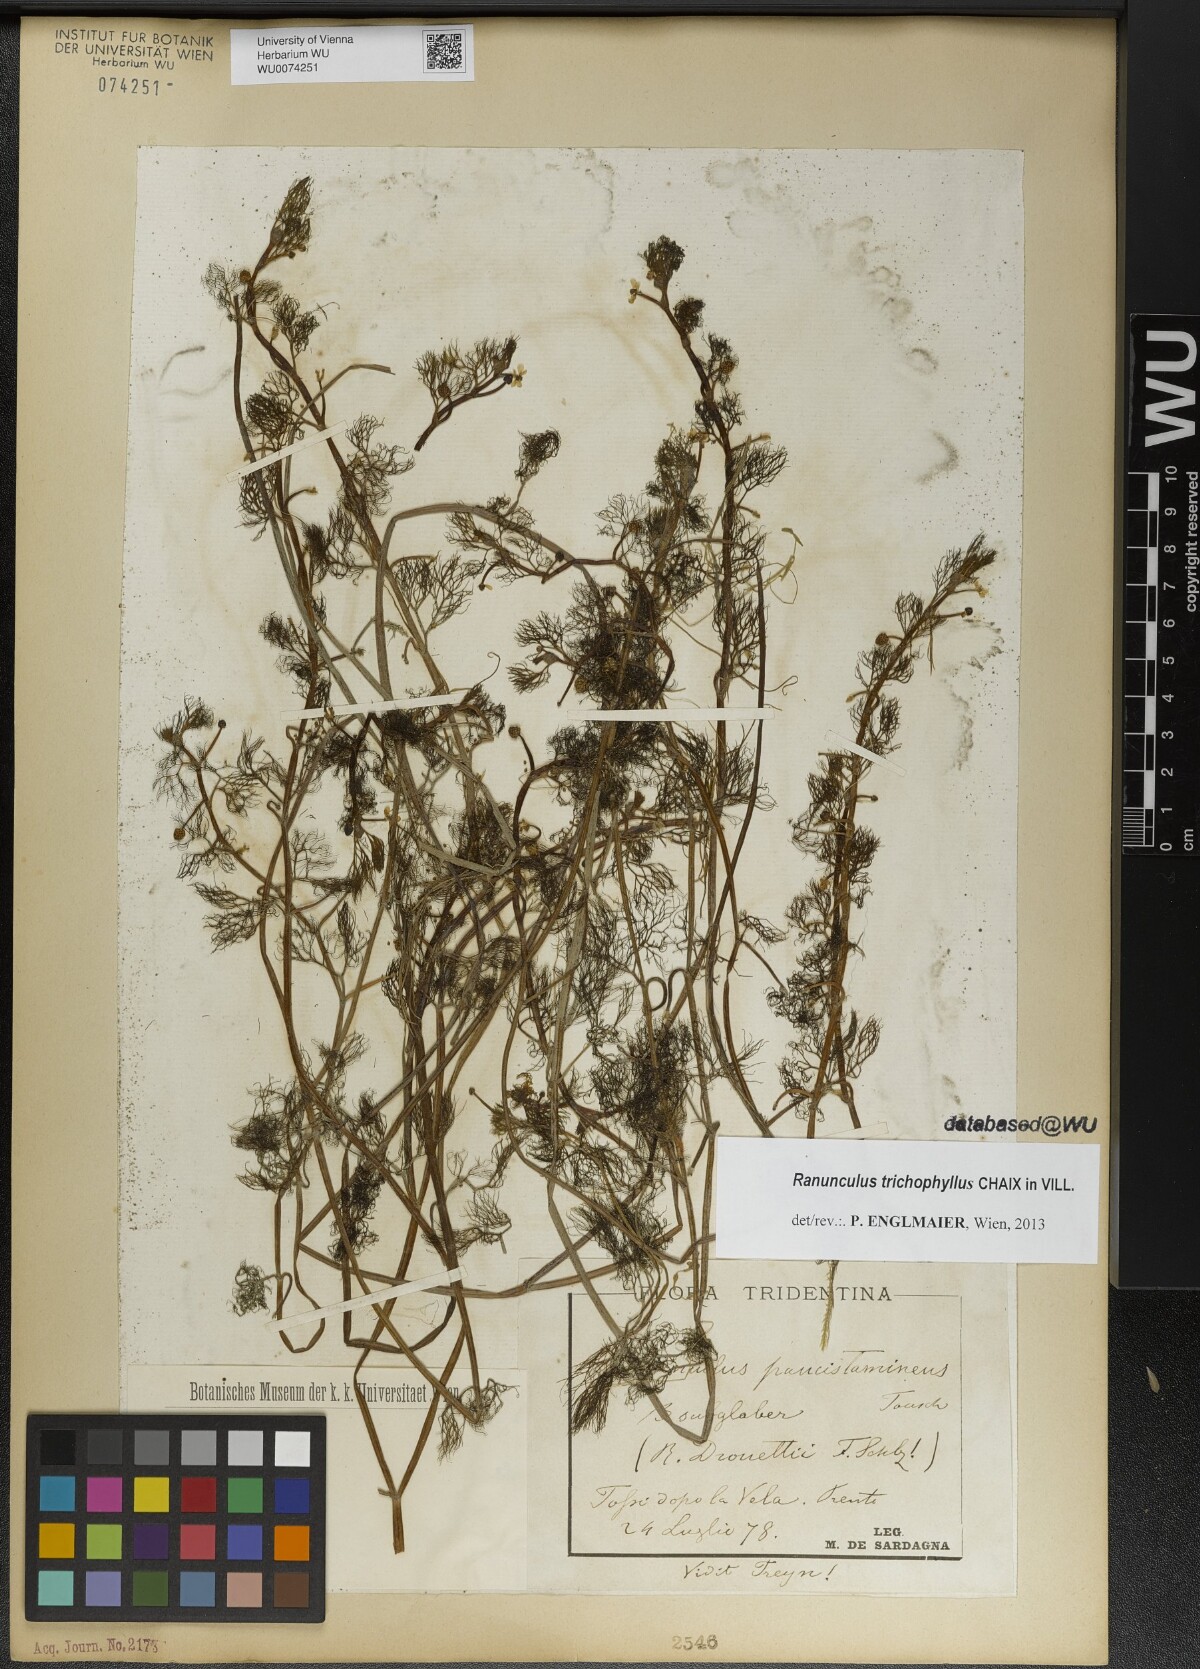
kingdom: Plantae
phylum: Tracheophyta
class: Magnoliopsida
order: Ranunculales
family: Ranunculaceae
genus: Ranunculus
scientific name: Ranunculus trichophyllus
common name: Thread-leaved water-crowfoot
